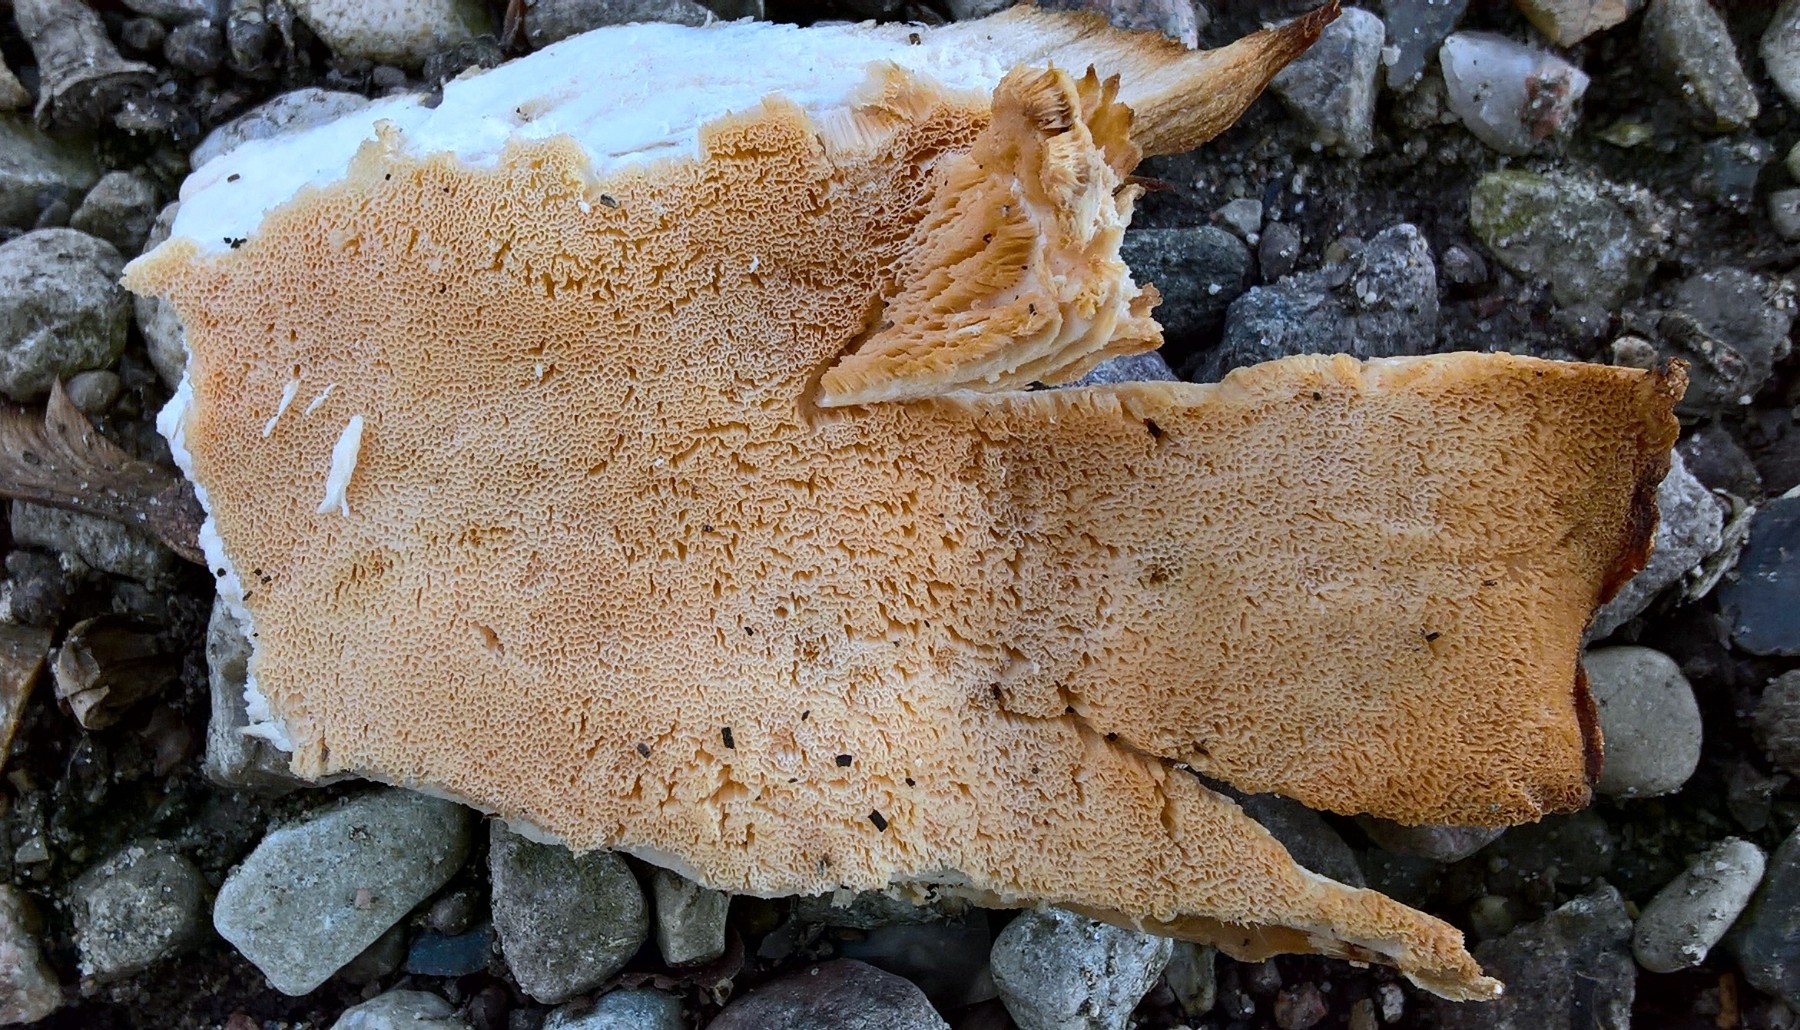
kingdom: Fungi
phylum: Basidiomycota
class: Agaricomycetes
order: Polyporales
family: Meripilaceae
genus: Meripilus
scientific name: Meripilus giganteus
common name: kæmpeporesvamp
